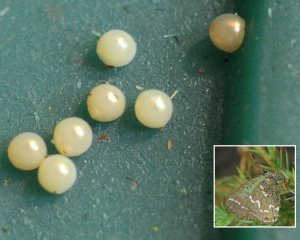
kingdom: Animalia
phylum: Arthropoda
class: Insecta
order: Lepidoptera
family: Lycaenidae
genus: Mitoura
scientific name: Mitoura gryneus
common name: Juniper Hairstreak
